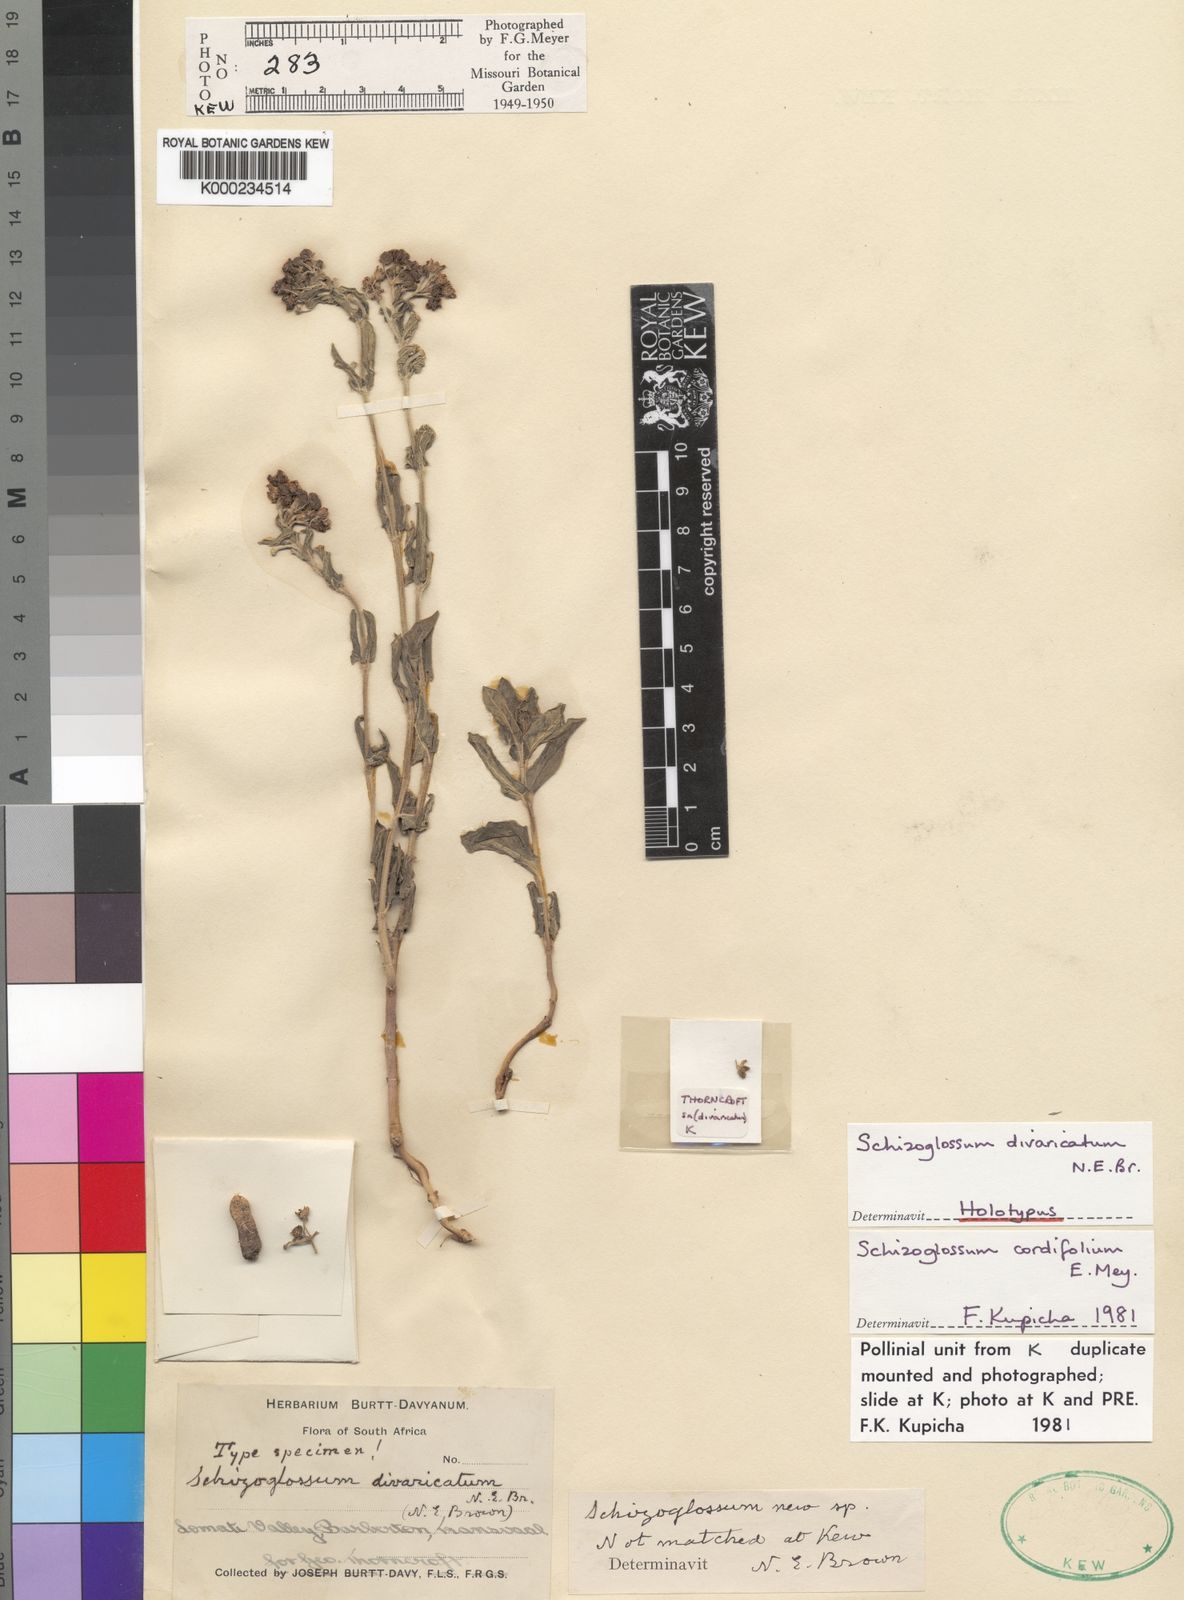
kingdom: Plantae
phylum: Tracheophyta
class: Magnoliopsida
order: Gentianales
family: Apocynaceae
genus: Schizoglossum
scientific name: Schizoglossum cordifolium
